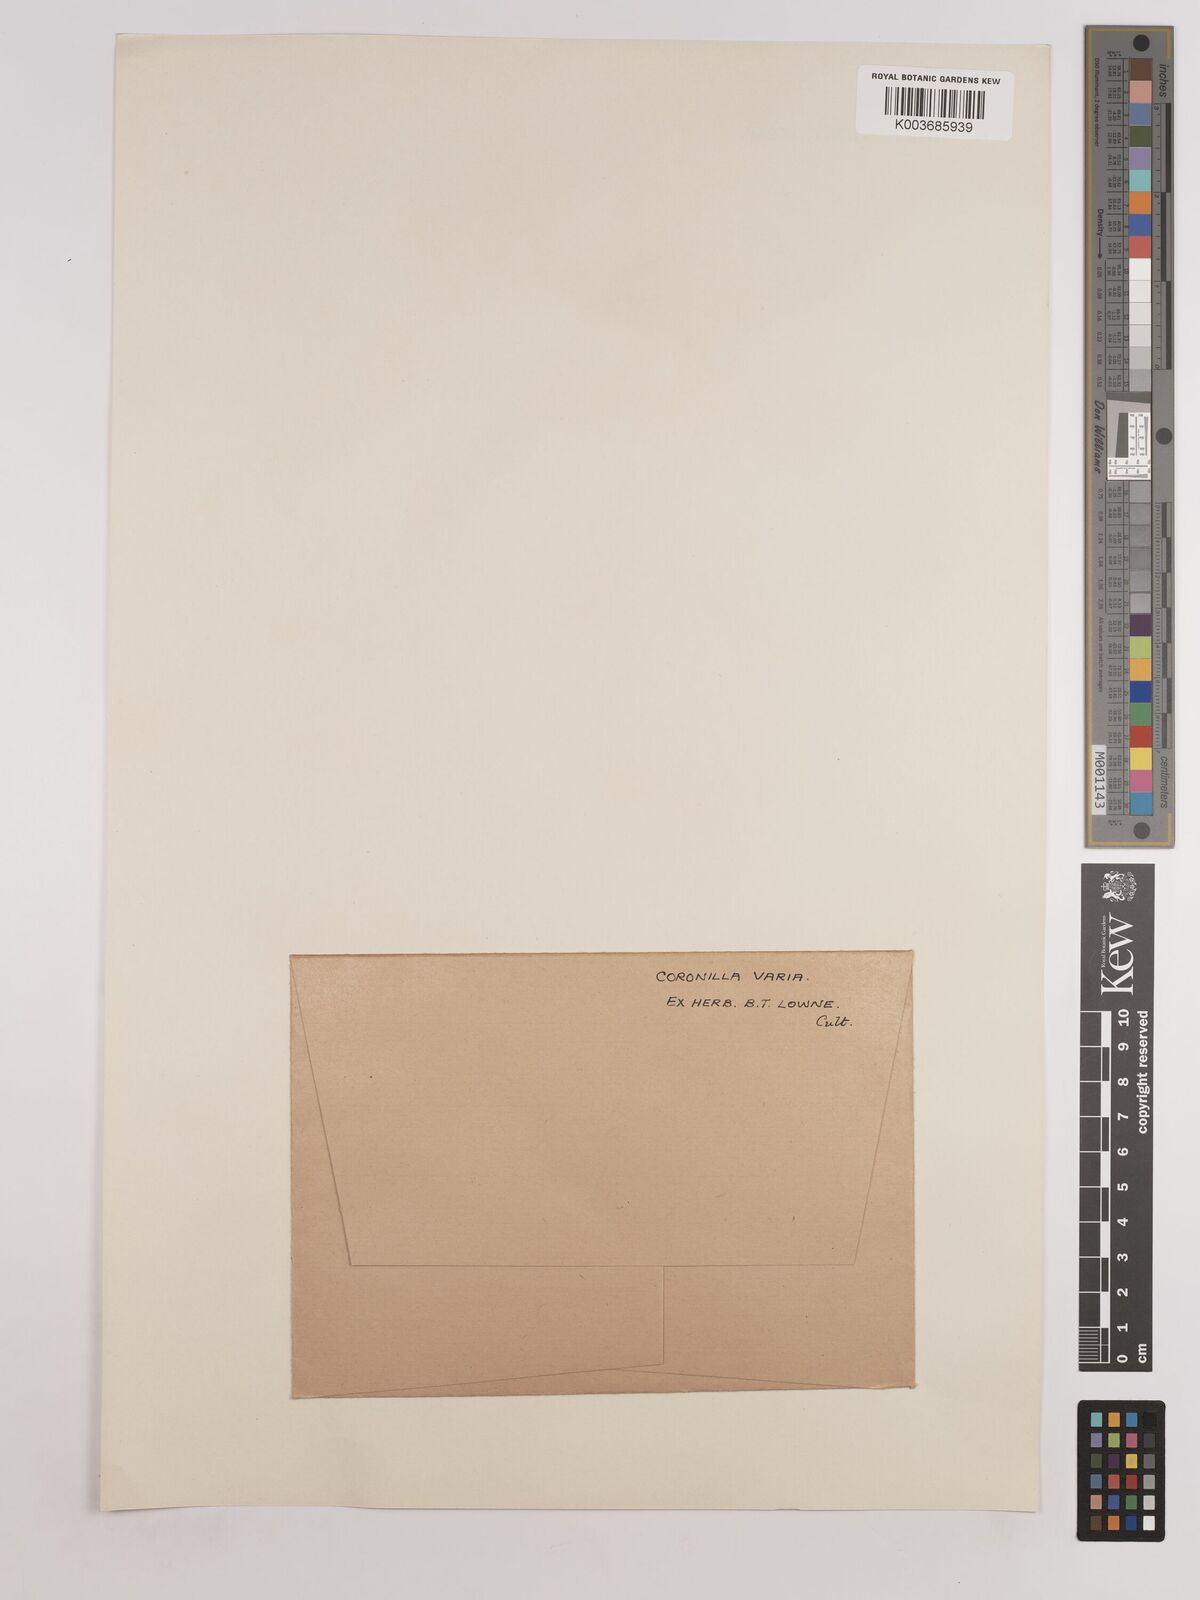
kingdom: Plantae
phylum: Tracheophyta
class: Magnoliopsida
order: Fabales
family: Fabaceae
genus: Coronilla
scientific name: Coronilla varia
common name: Crownvetch
